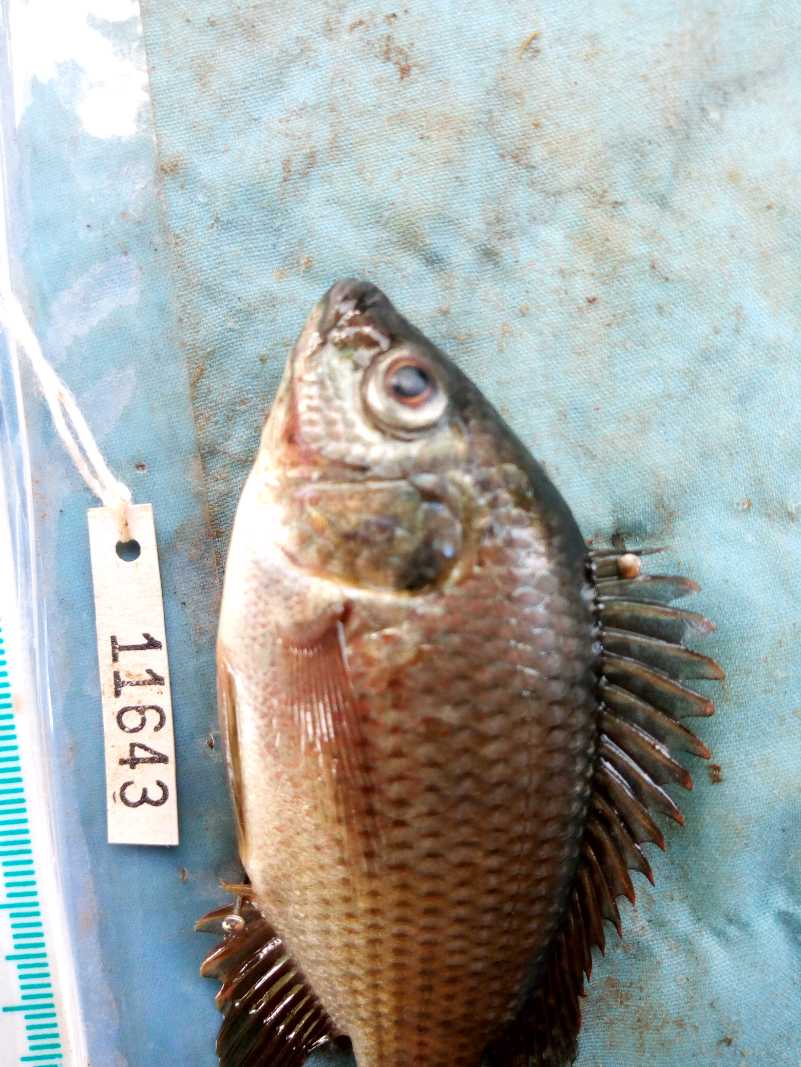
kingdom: Animalia
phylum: Chordata
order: Perciformes
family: Cichlidae
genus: Oreochromis
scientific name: Oreochromis spilurus
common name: Sabaki tilapia
